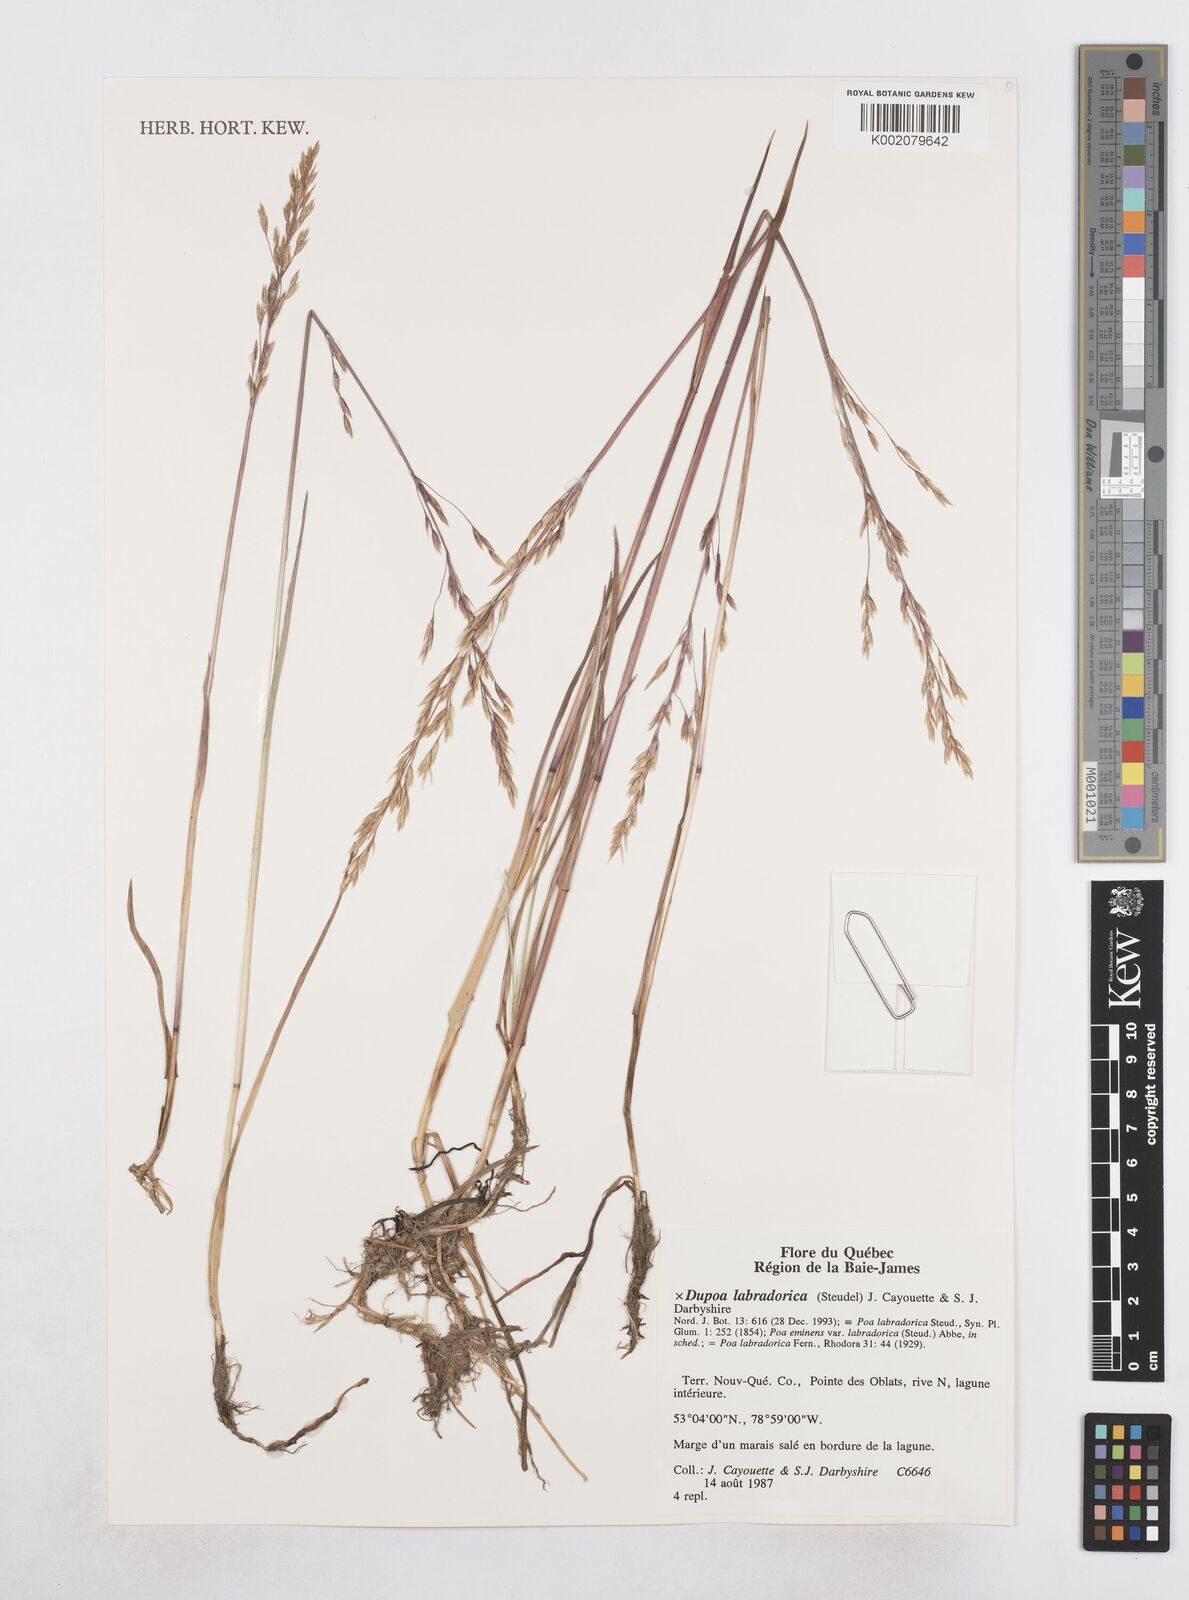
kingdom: Plantae
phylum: Tracheophyta
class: Liliopsida
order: Poales
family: Poaceae
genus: Dupontia
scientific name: Dupontia
